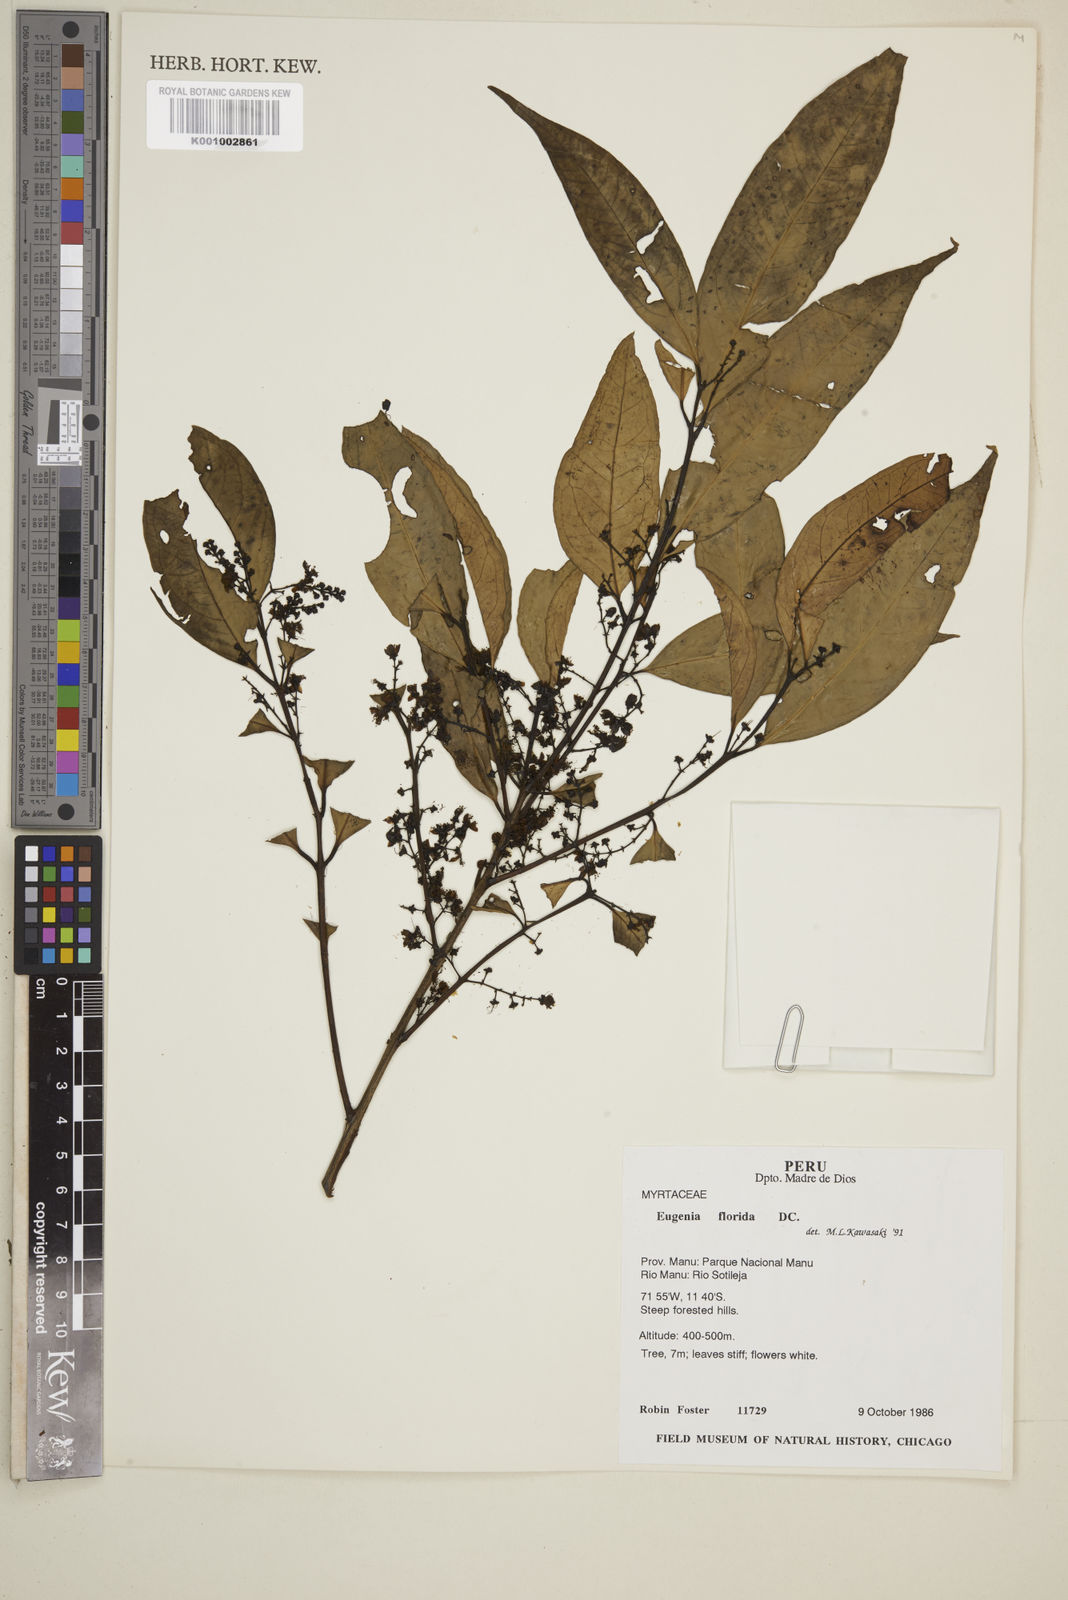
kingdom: Plantae
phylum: Tracheophyta
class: Magnoliopsida
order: Myrtales
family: Myrtaceae
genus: Eugenia
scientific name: Eugenia florida
